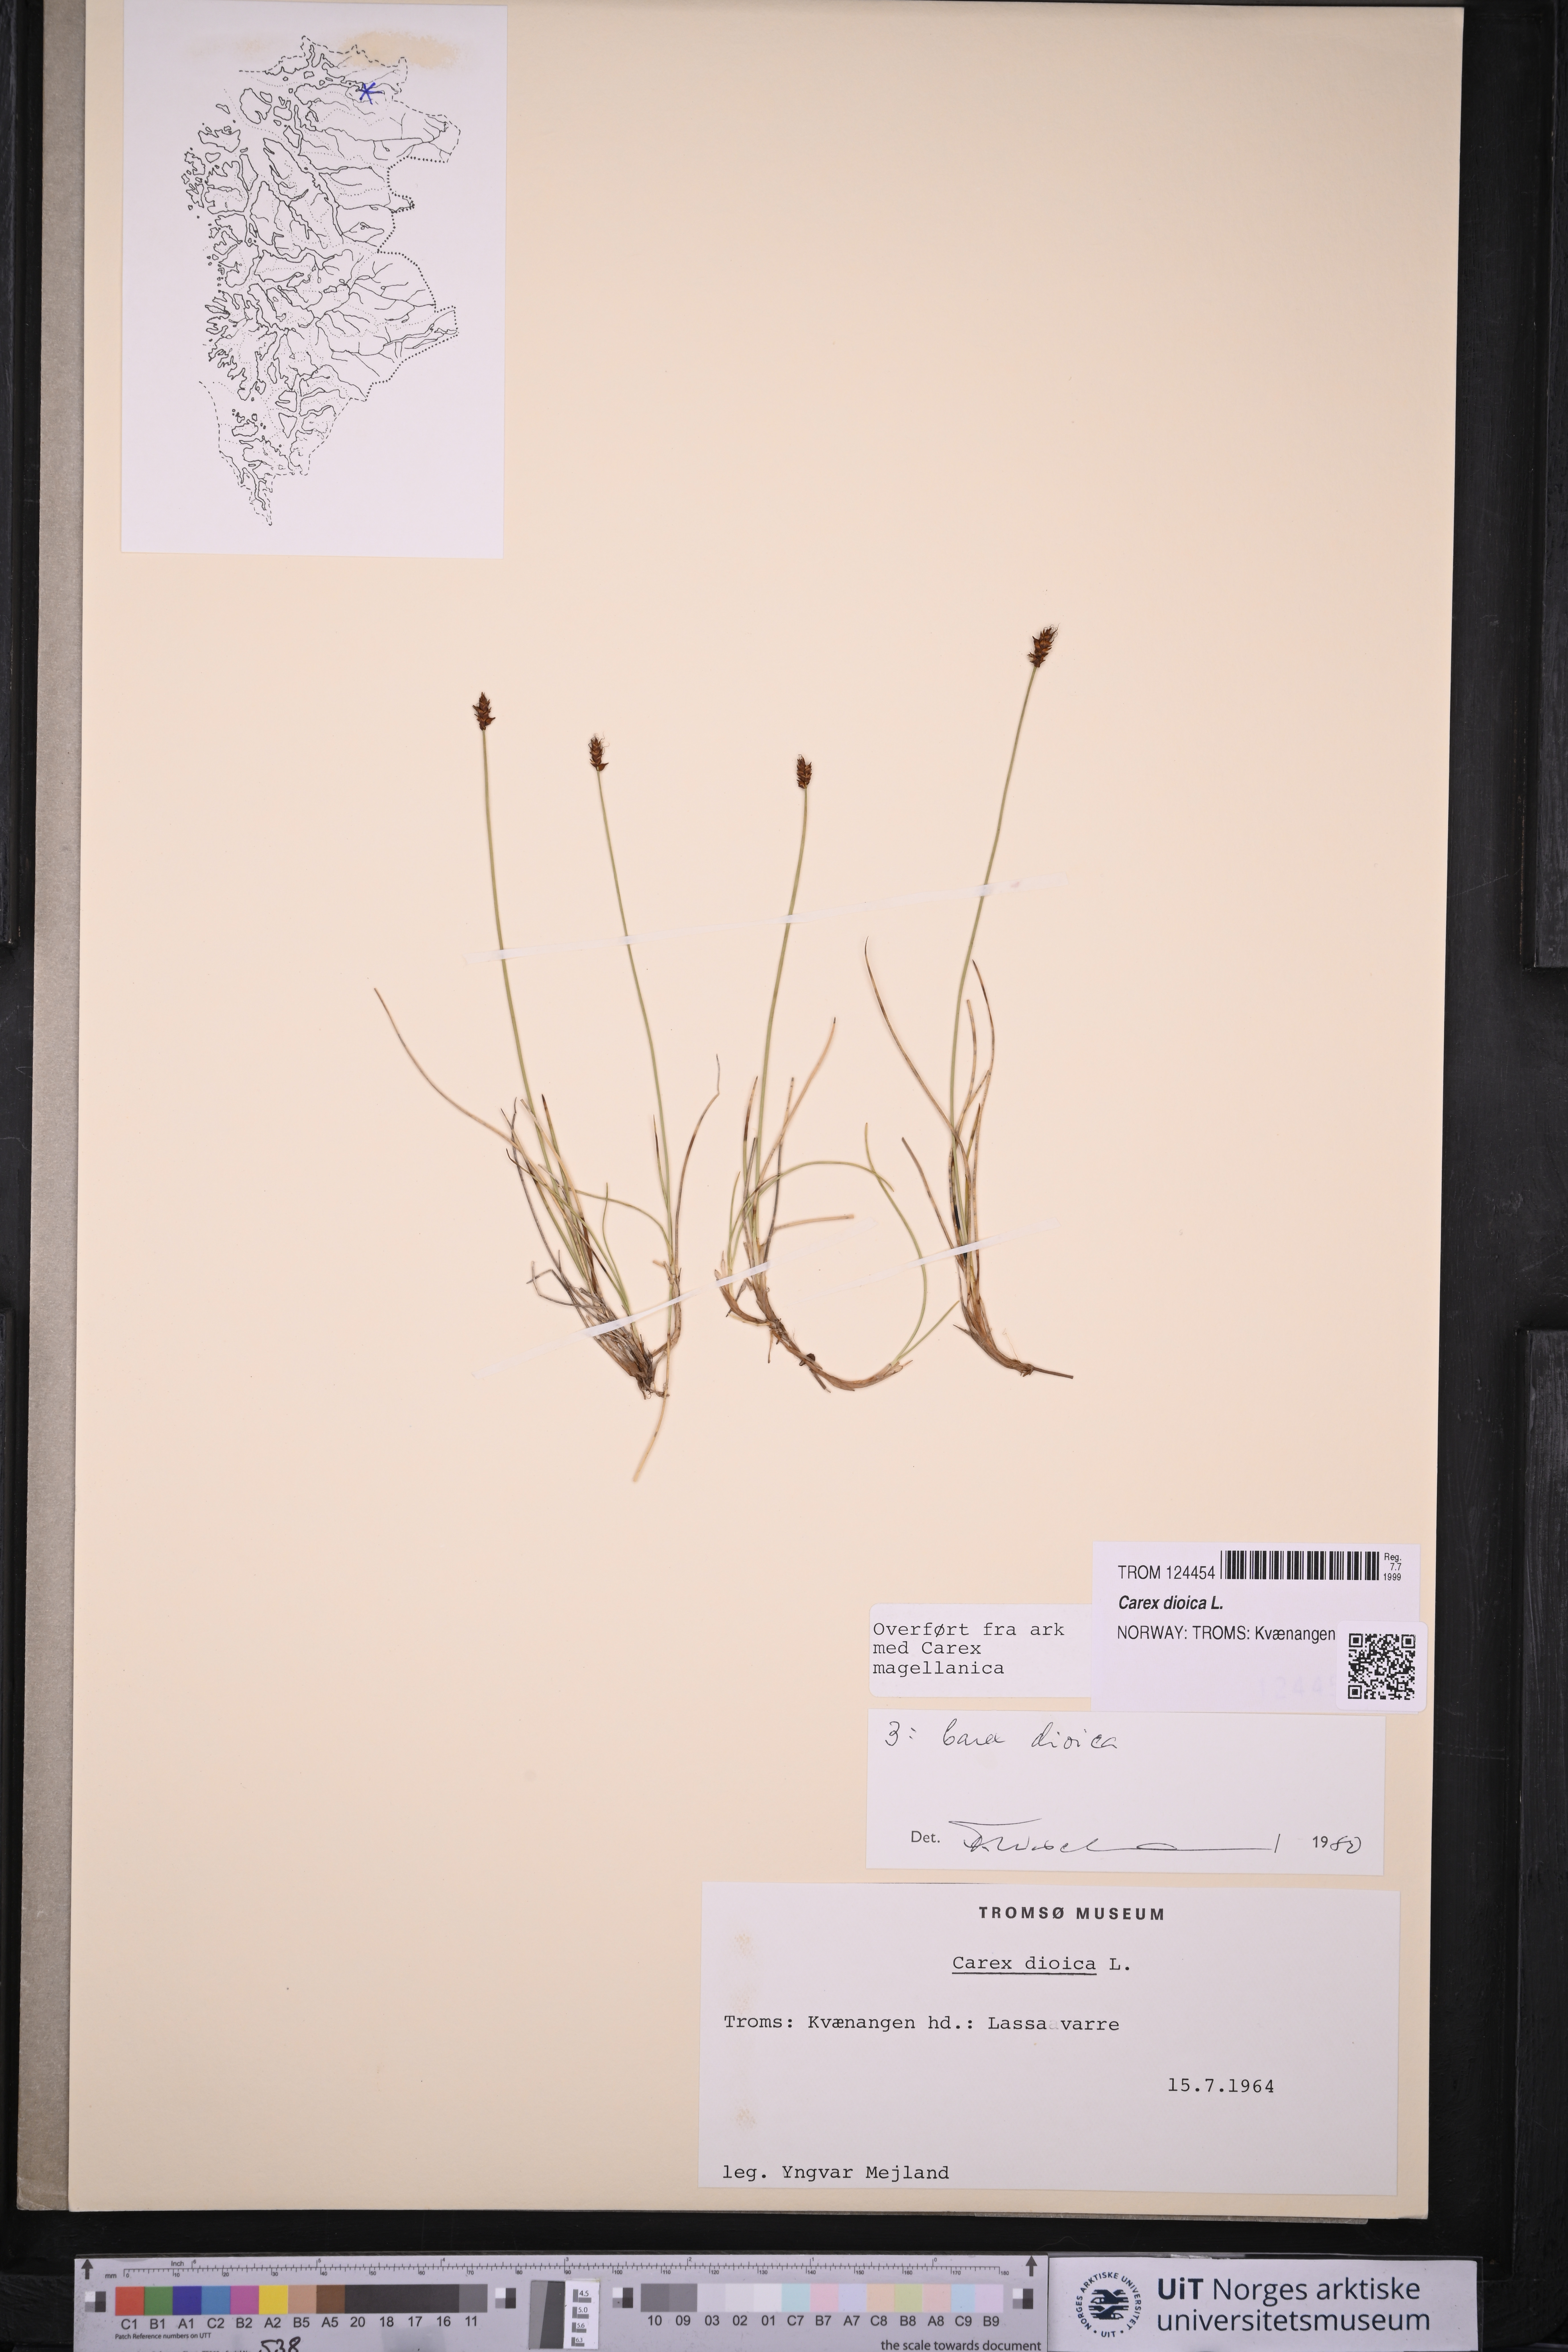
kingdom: Plantae
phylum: Tracheophyta
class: Liliopsida
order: Poales
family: Cyperaceae
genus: Carex
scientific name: Carex dioica
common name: Dioecious sedge
